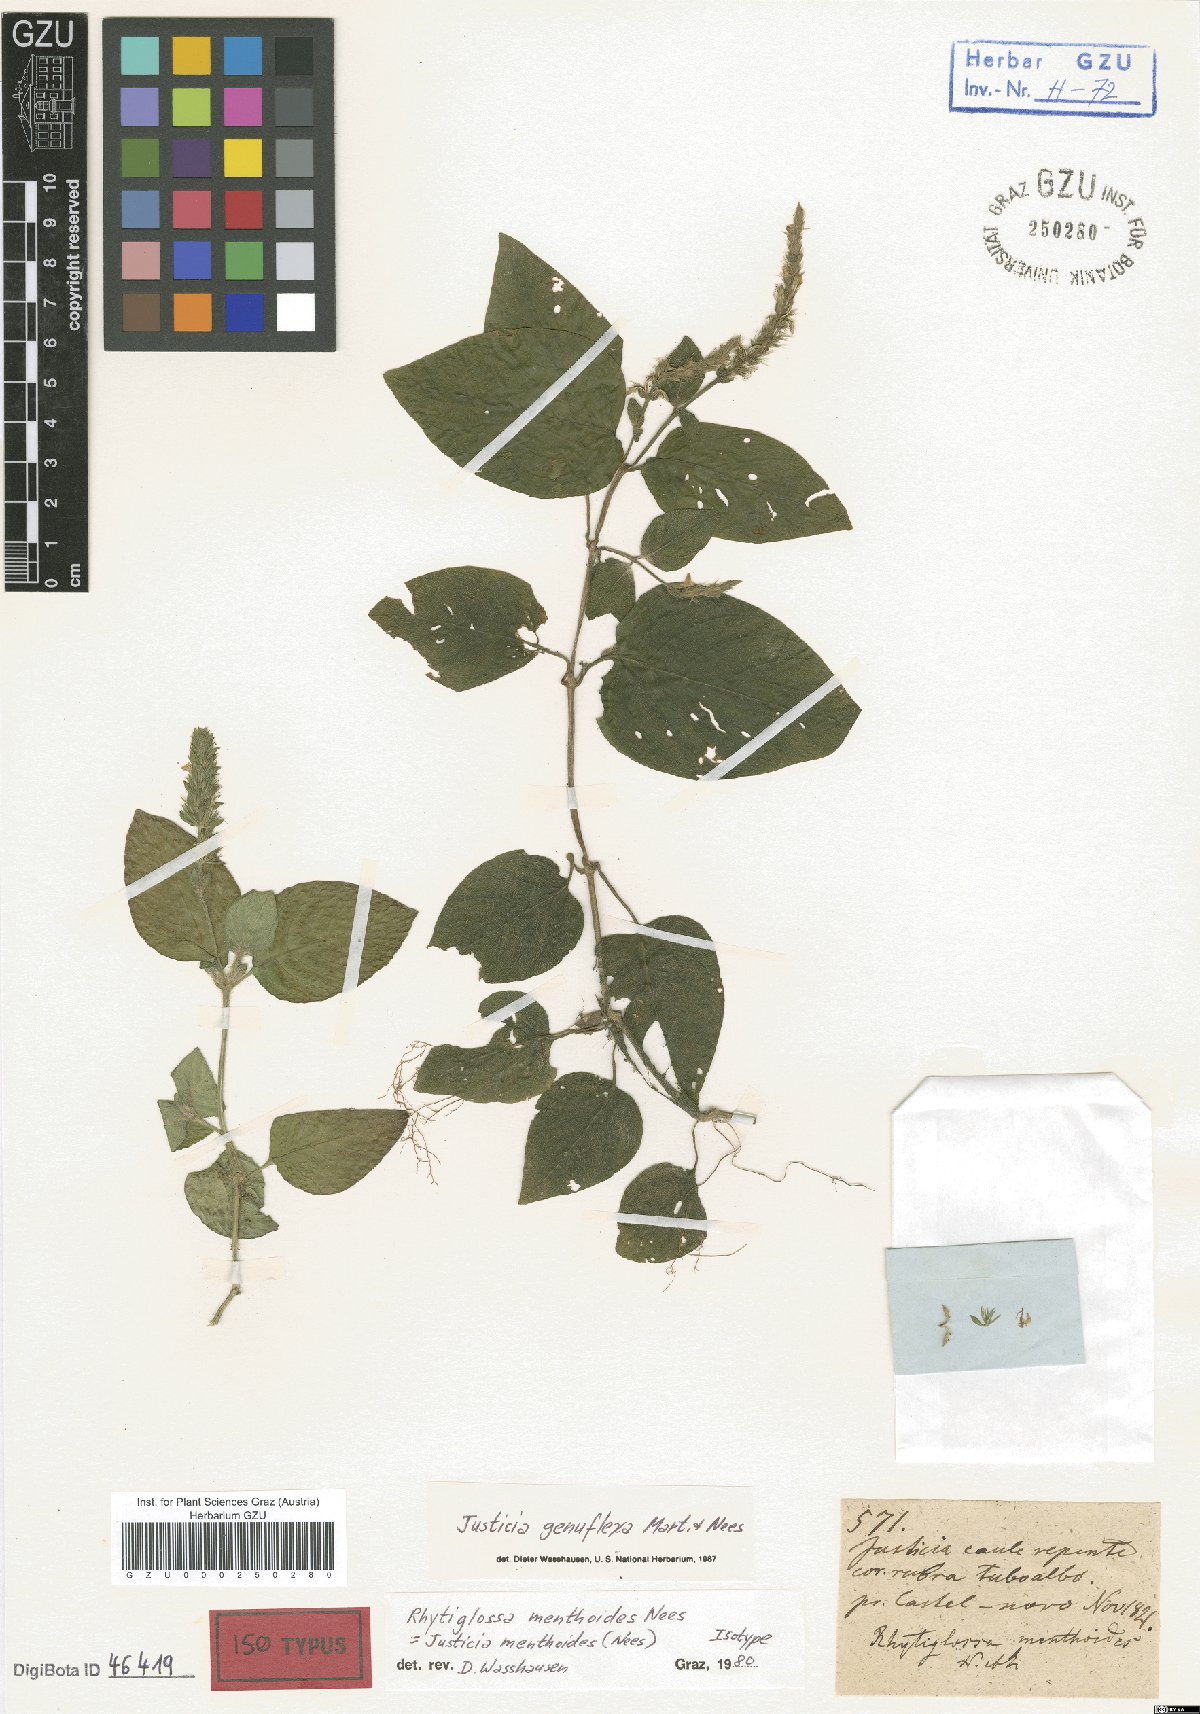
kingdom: Plantae
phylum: Tracheophyta
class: Magnoliopsida
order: Lamiales
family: Acanthaceae
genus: Justicia
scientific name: Justicia genuflexa
